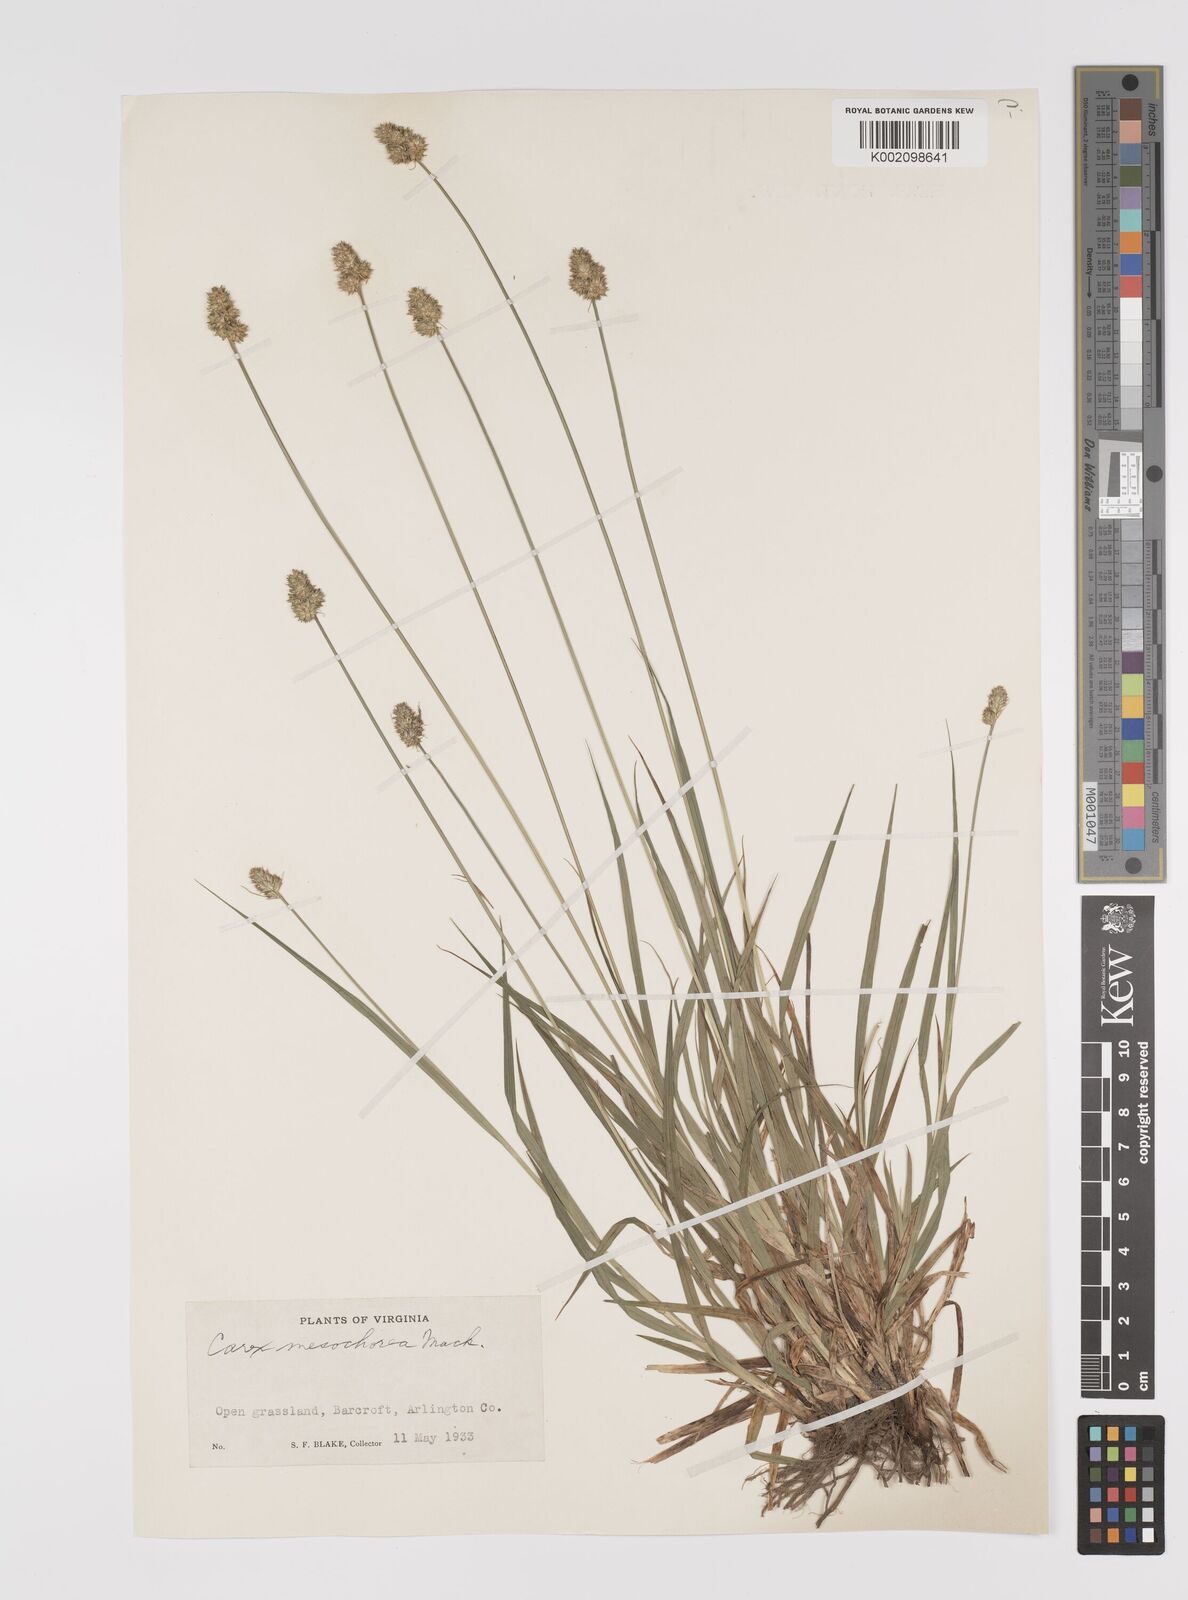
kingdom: Plantae
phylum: Tracheophyta
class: Liliopsida
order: Poales
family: Cyperaceae
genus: Carex
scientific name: Carex mesochorea
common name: Midland bracted sedge
